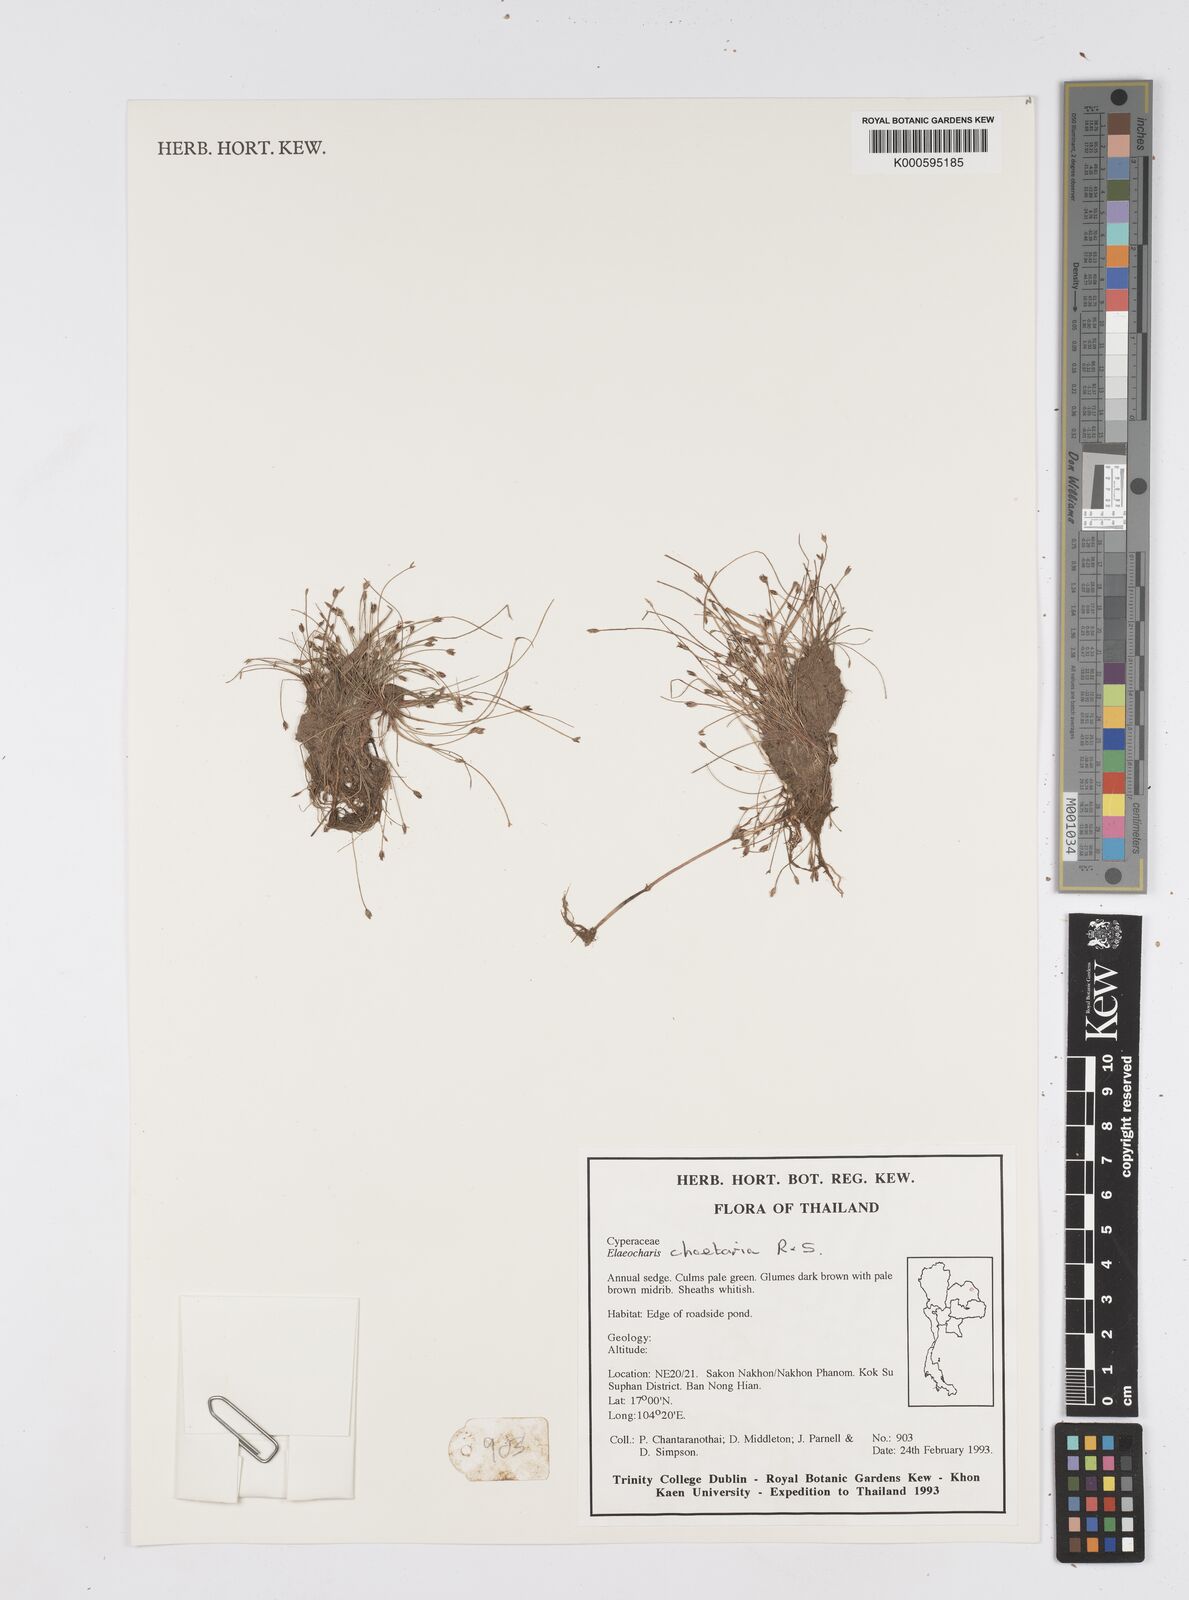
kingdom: Plantae
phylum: Tracheophyta
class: Liliopsida
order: Poales
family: Cyperaceae
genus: Eleocharis
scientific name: Eleocharis retroflexa
